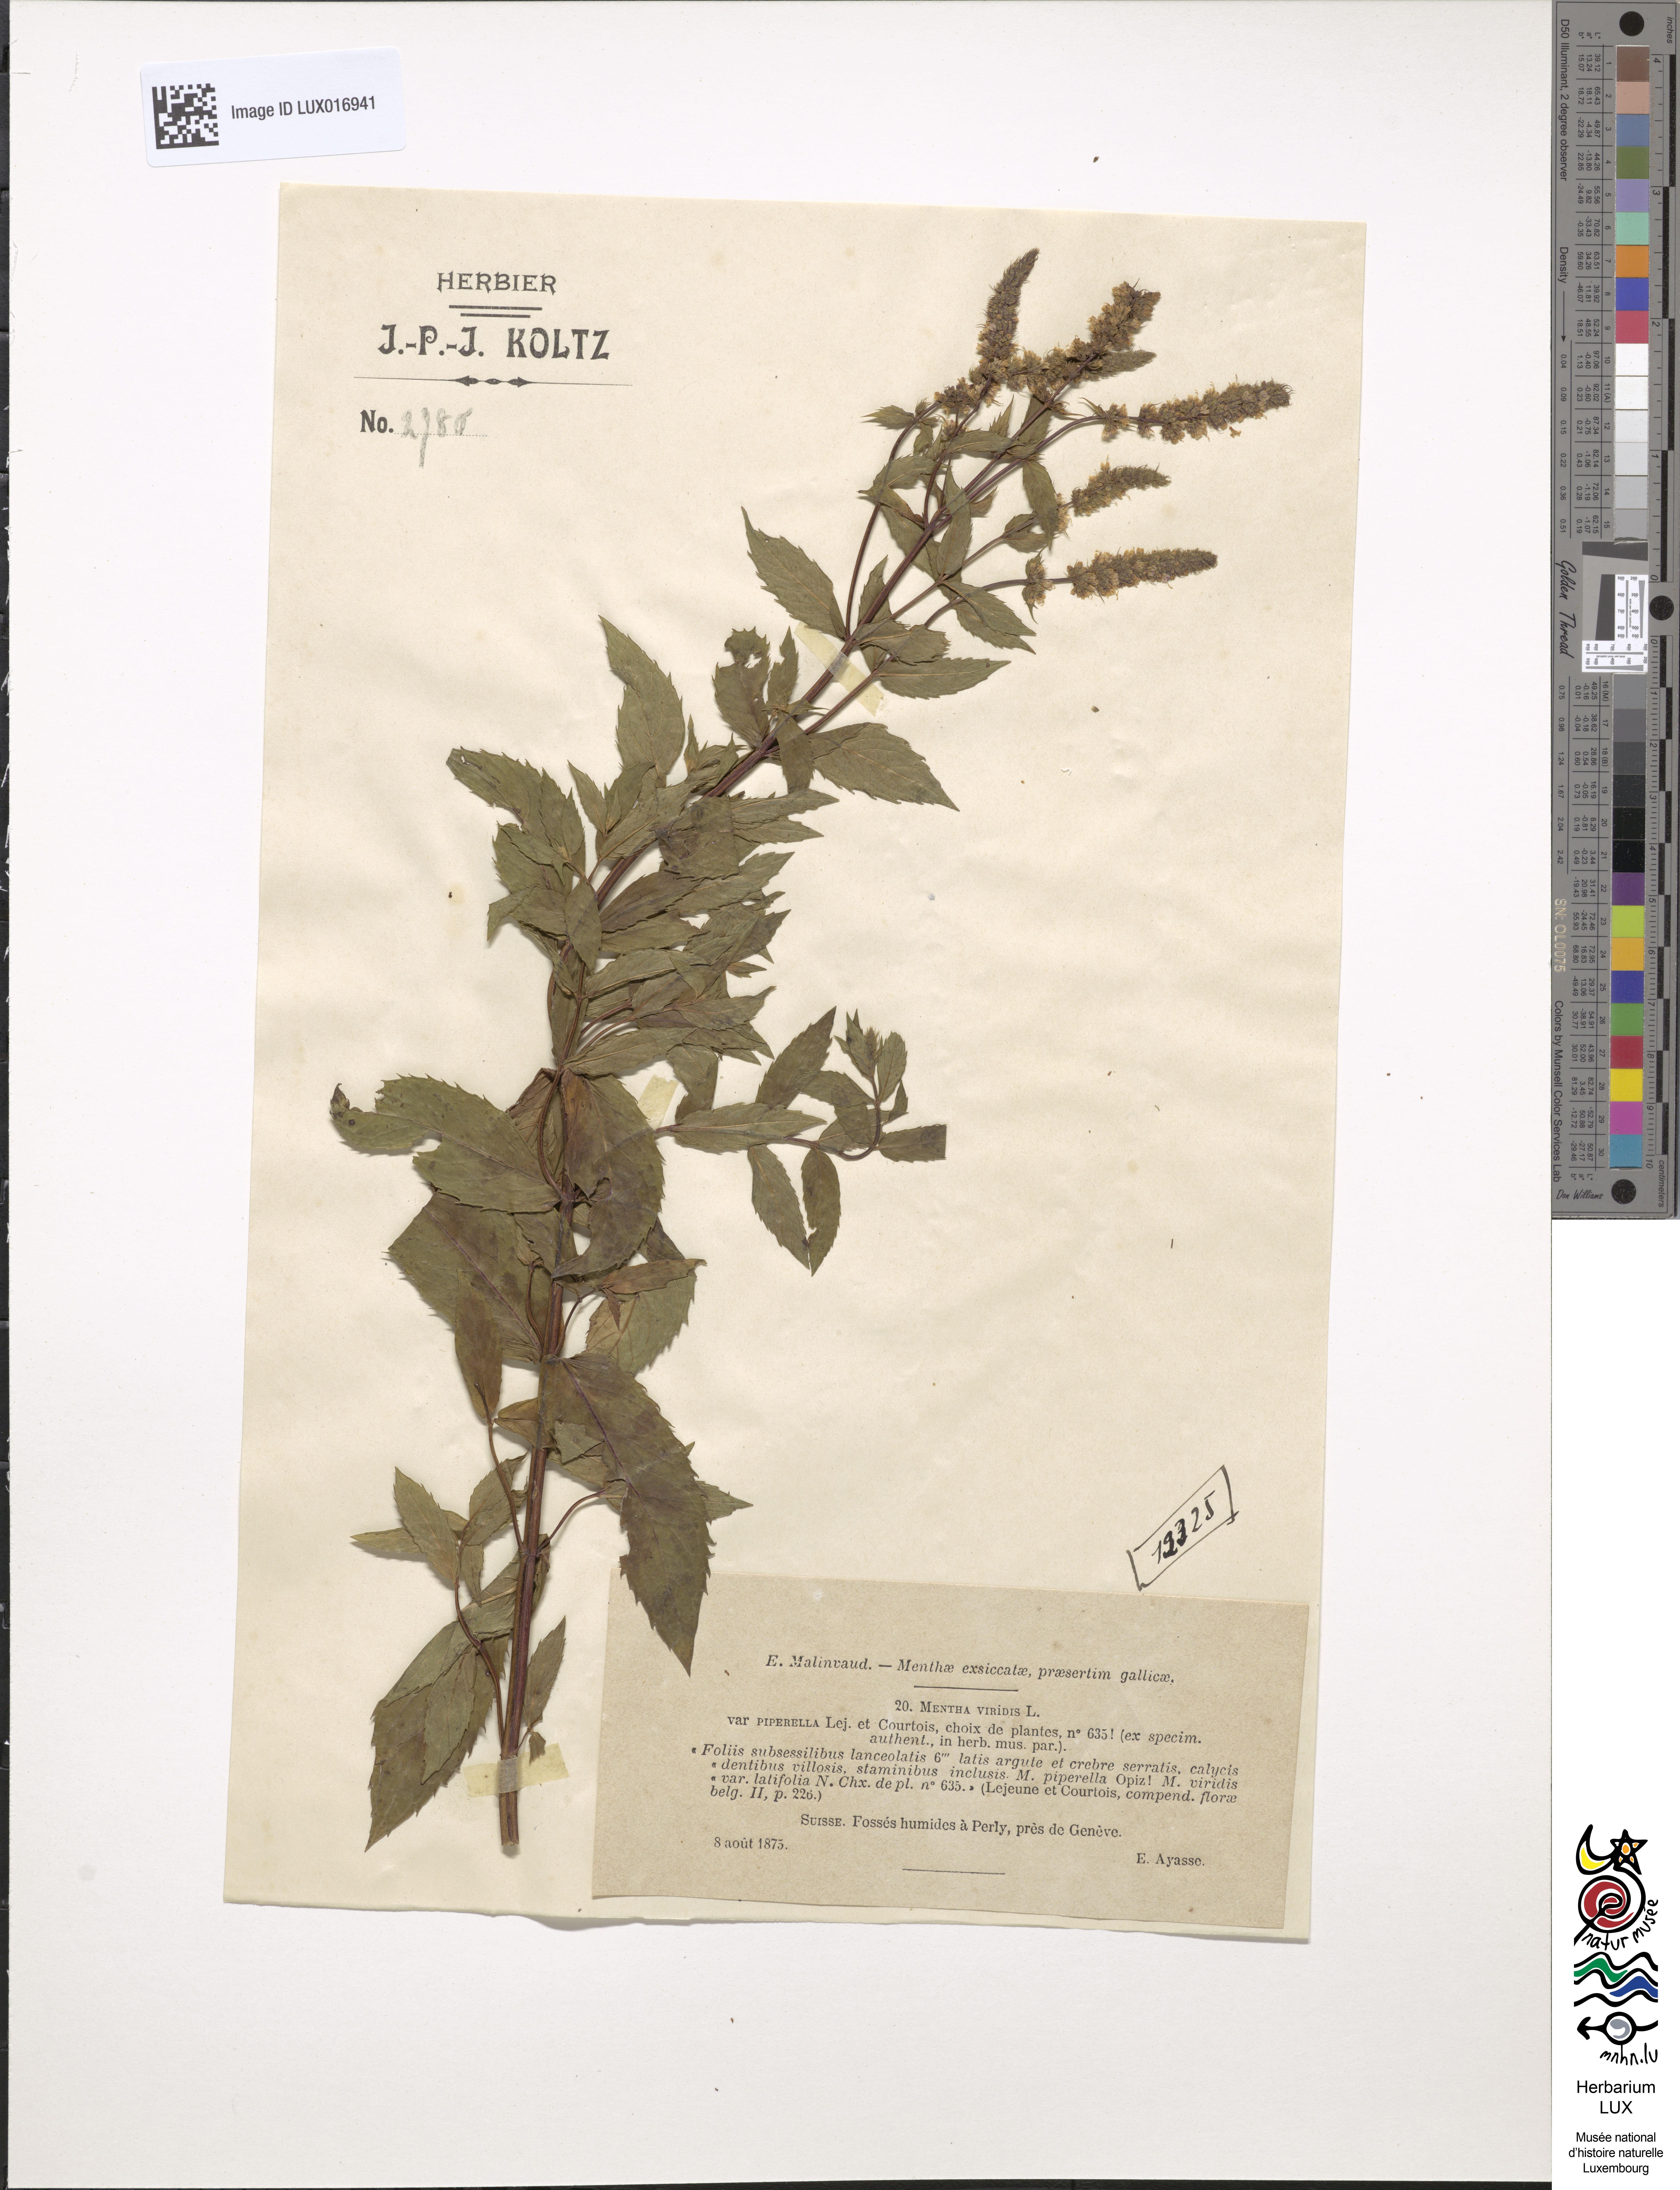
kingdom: Plantae
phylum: Tracheophyta
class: Magnoliopsida
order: Lamiales
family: Lamiaceae
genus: Mentha
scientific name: Mentha spicata
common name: Spearmint
